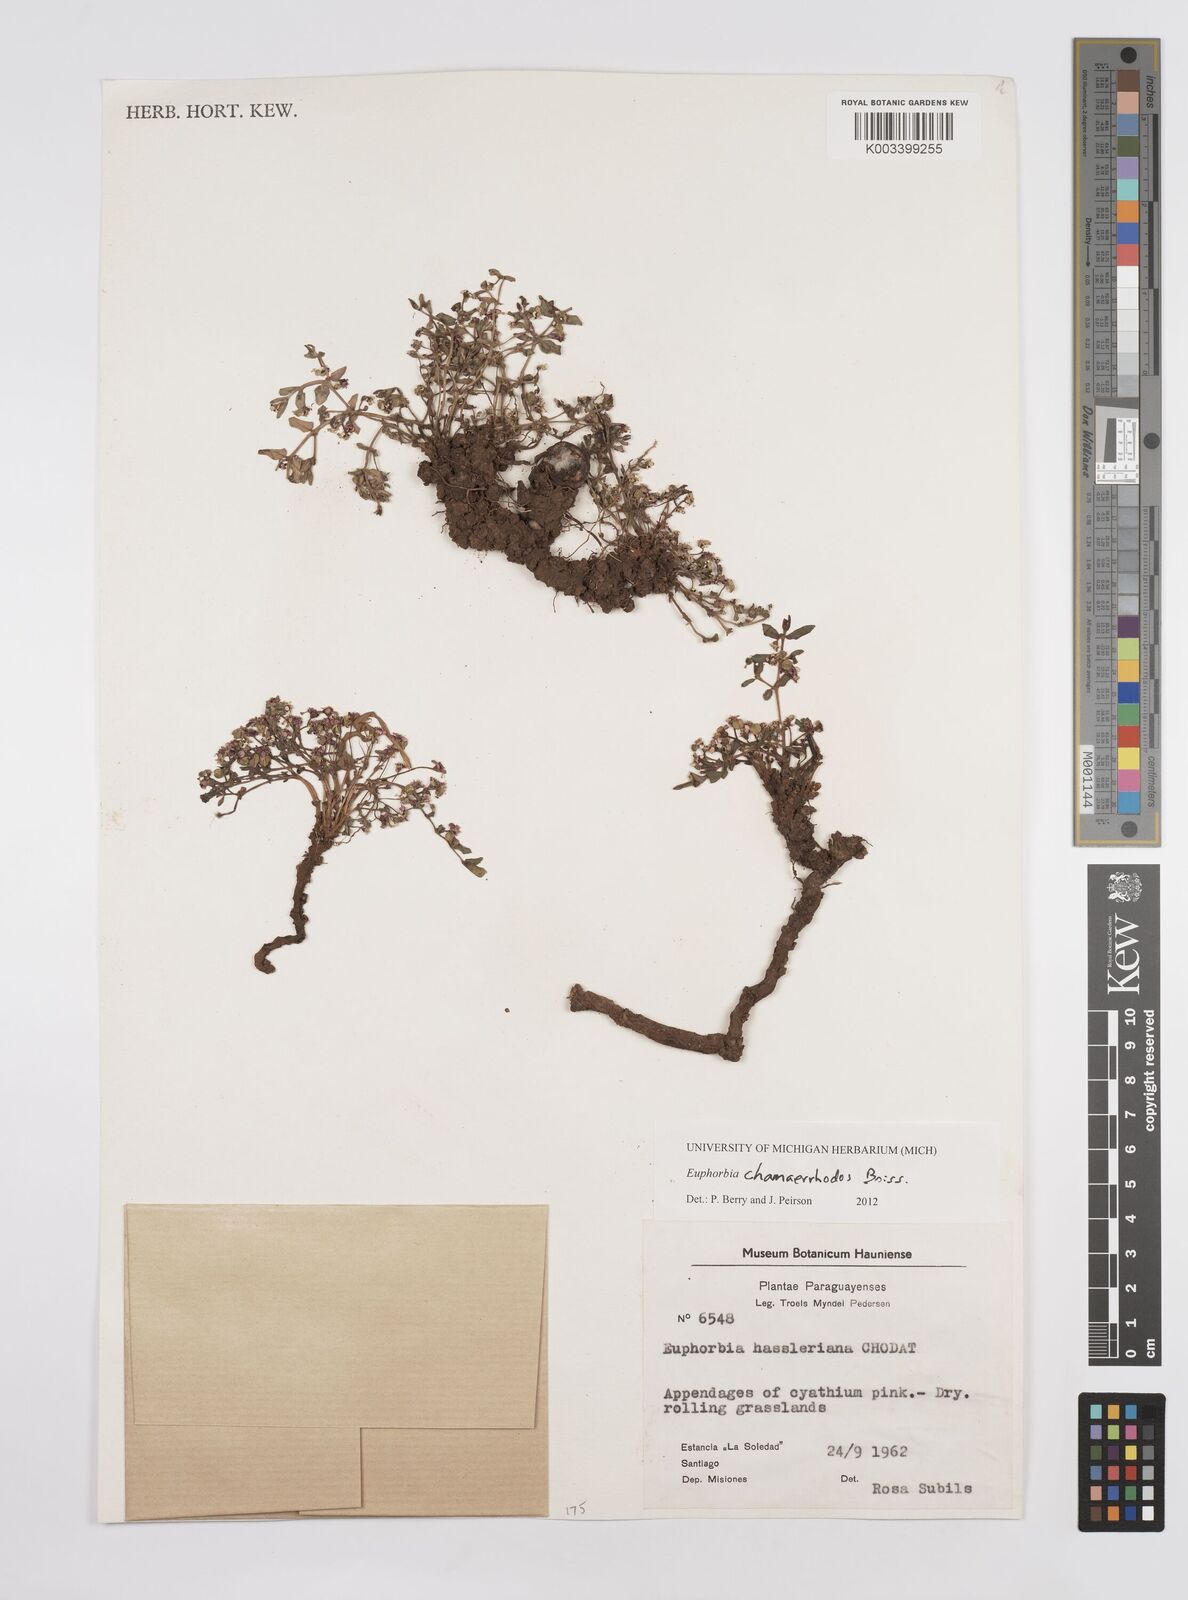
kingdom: Plantae
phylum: Tracheophyta
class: Magnoliopsida
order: Malpighiales
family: Euphorbiaceae
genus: Euphorbia
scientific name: Euphorbia chamaerrhodos
